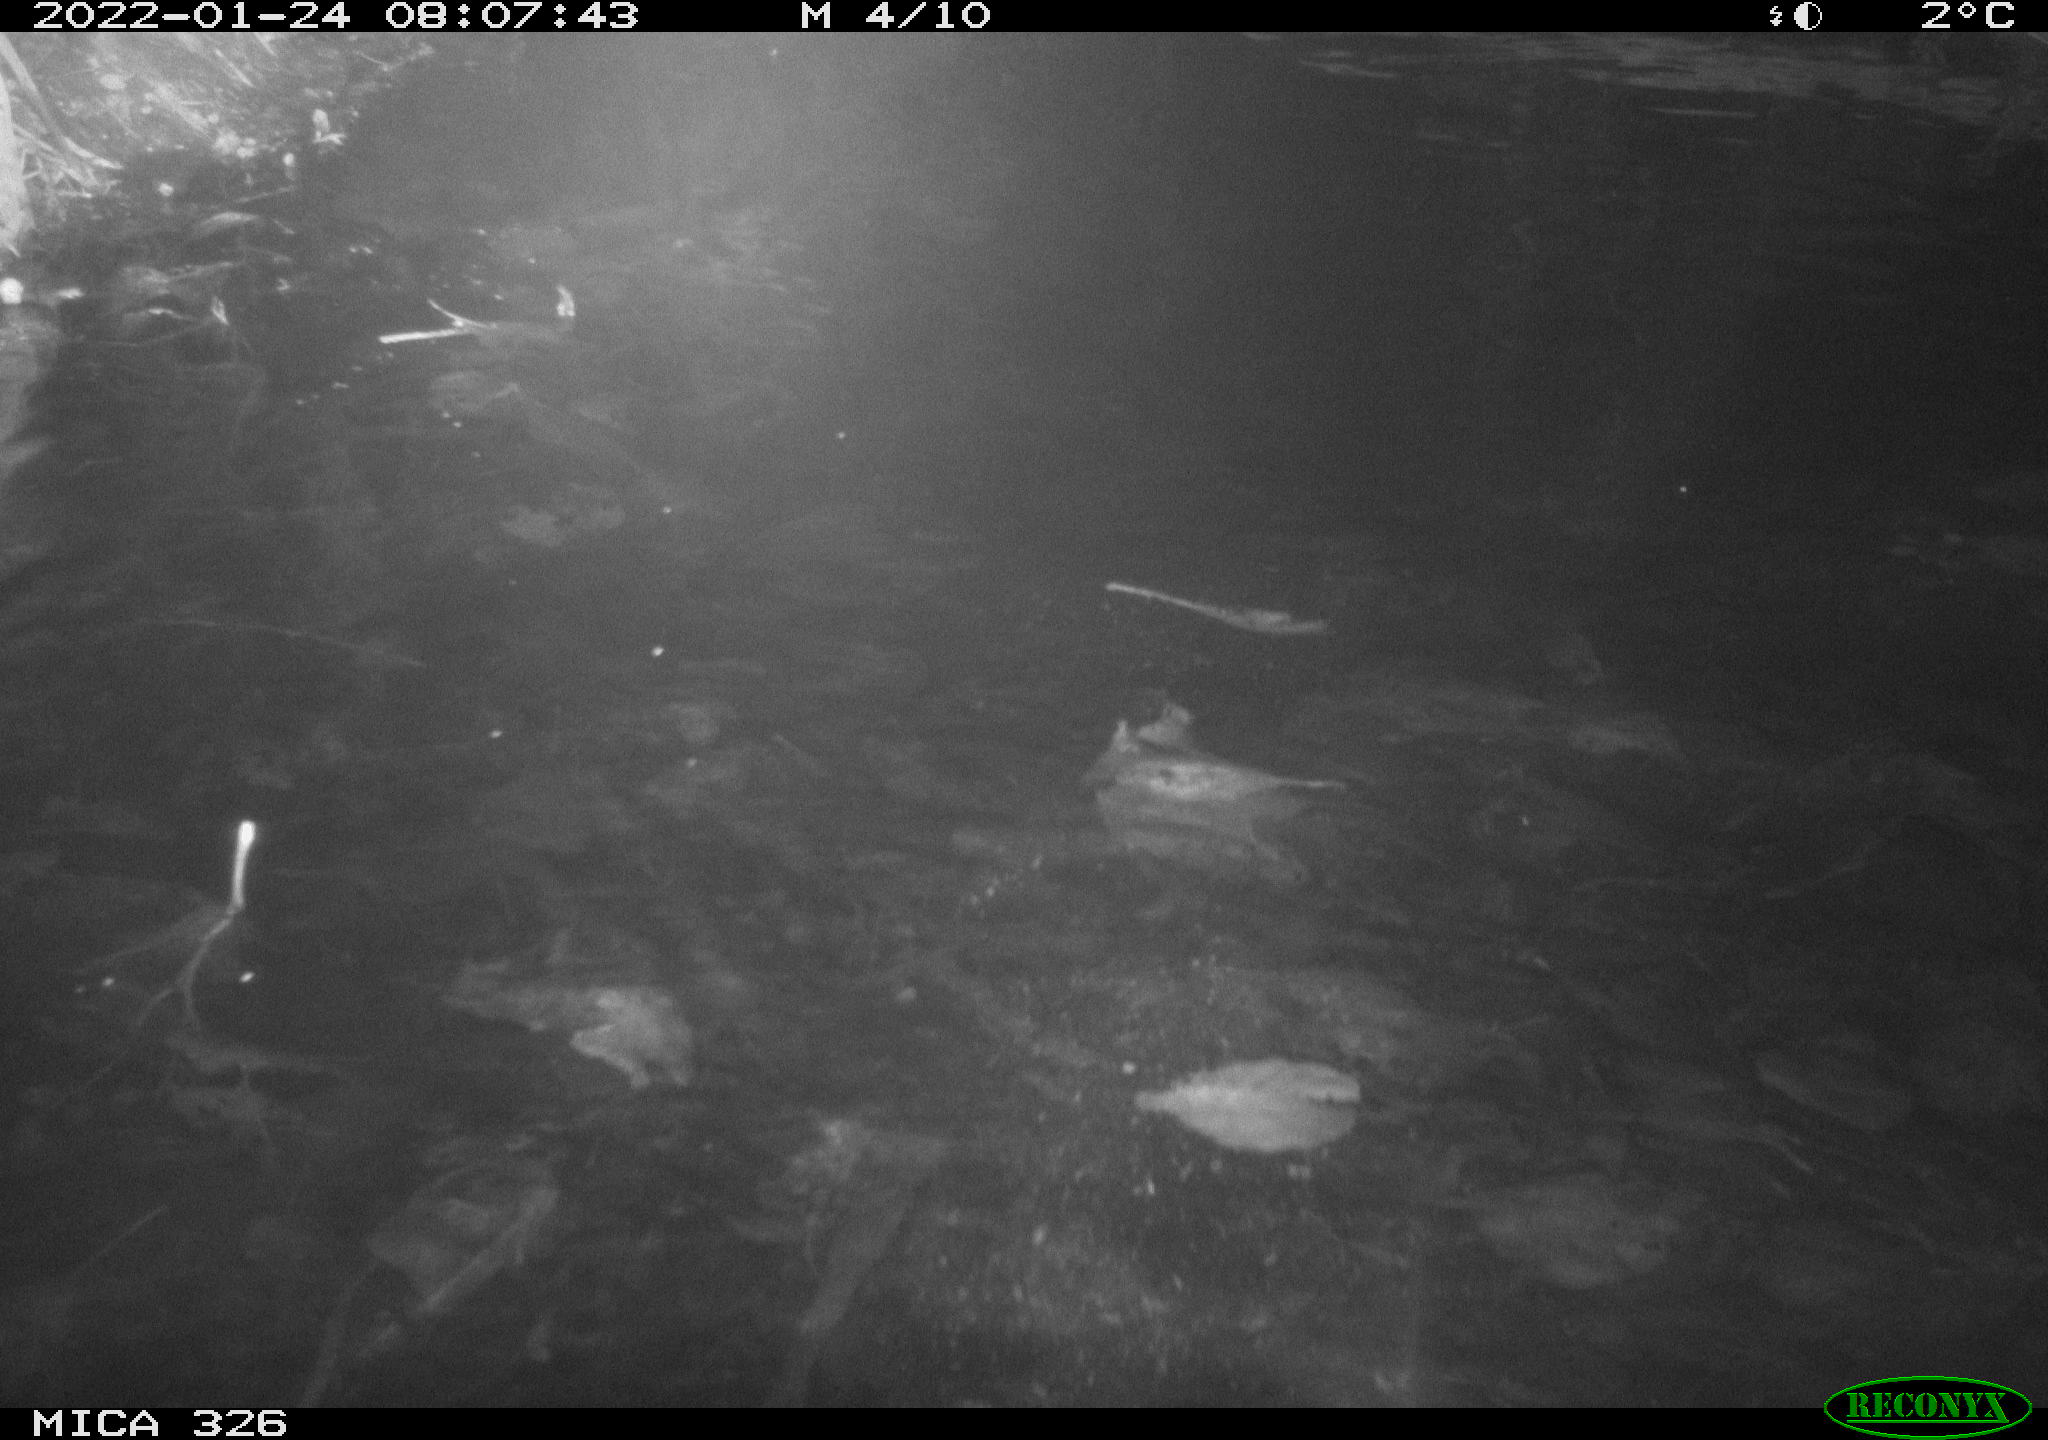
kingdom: Animalia
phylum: Chordata
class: Mammalia
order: Rodentia
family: Cricetidae
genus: Ondatra
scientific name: Ondatra zibethicus
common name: Muskrat
